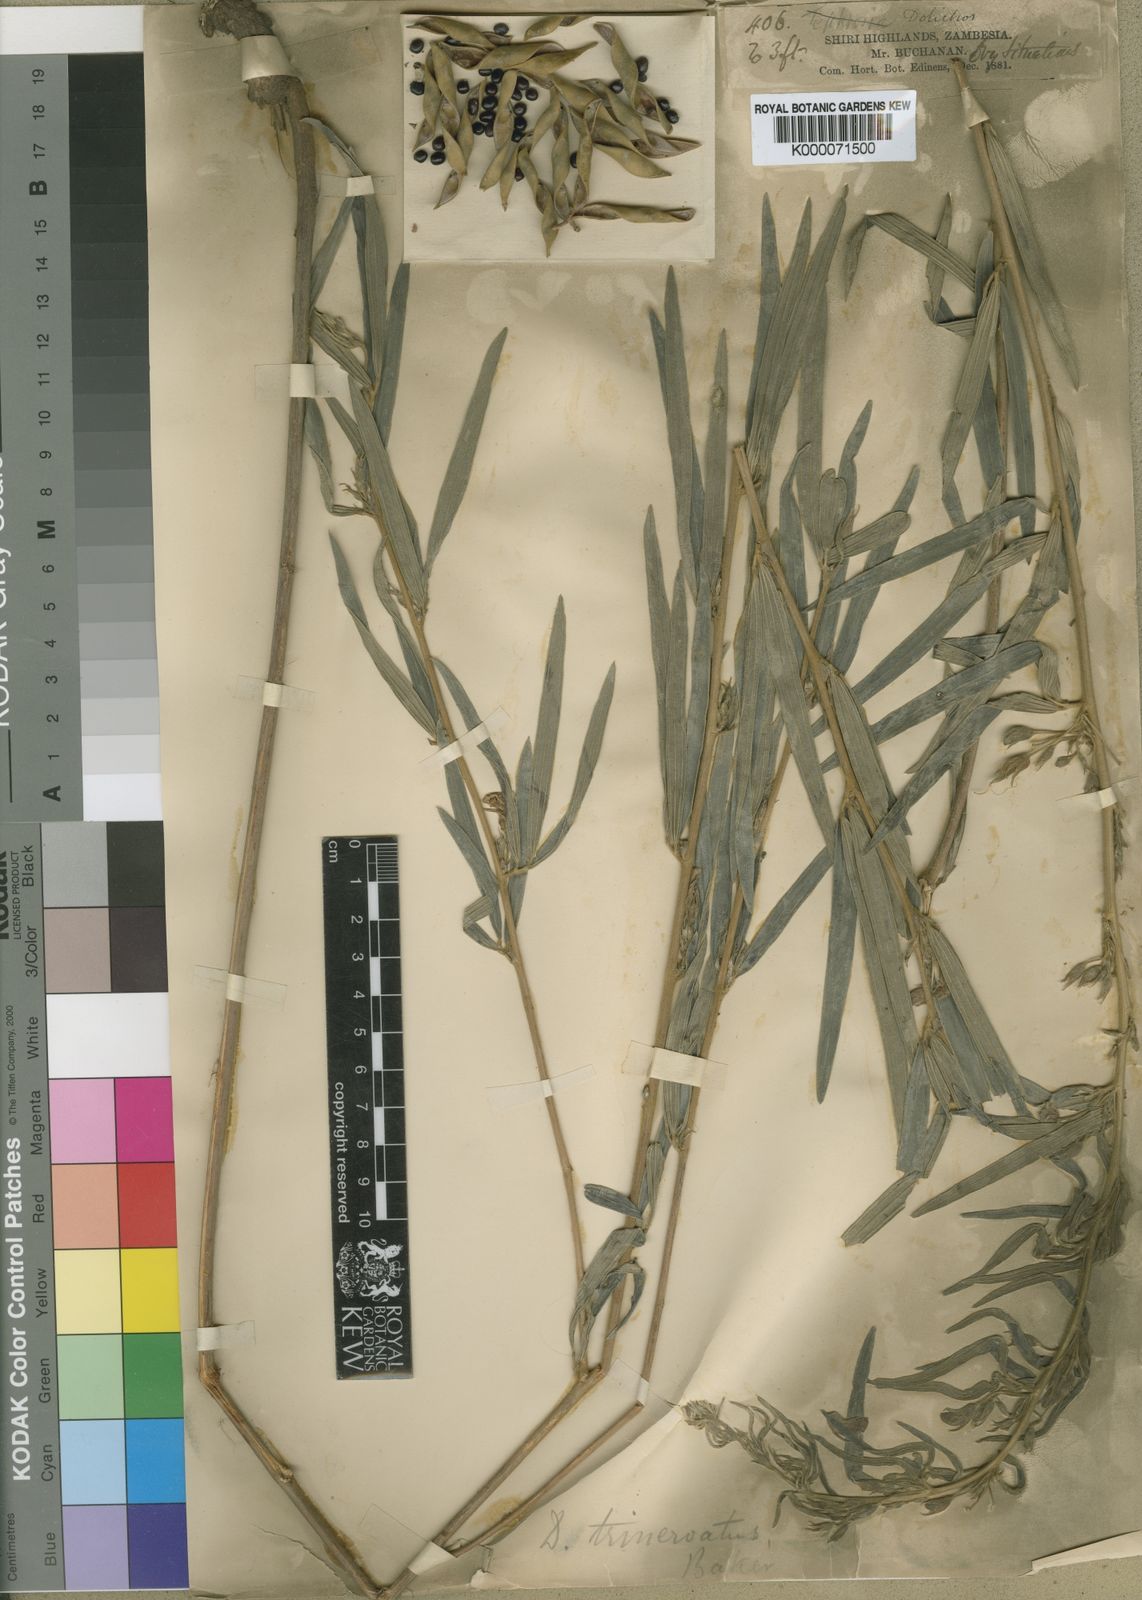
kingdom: Plantae
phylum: Tracheophyta
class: Magnoliopsida
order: Fabales
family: Fabaceae
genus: Dolichos
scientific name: Dolichos trinervatus
